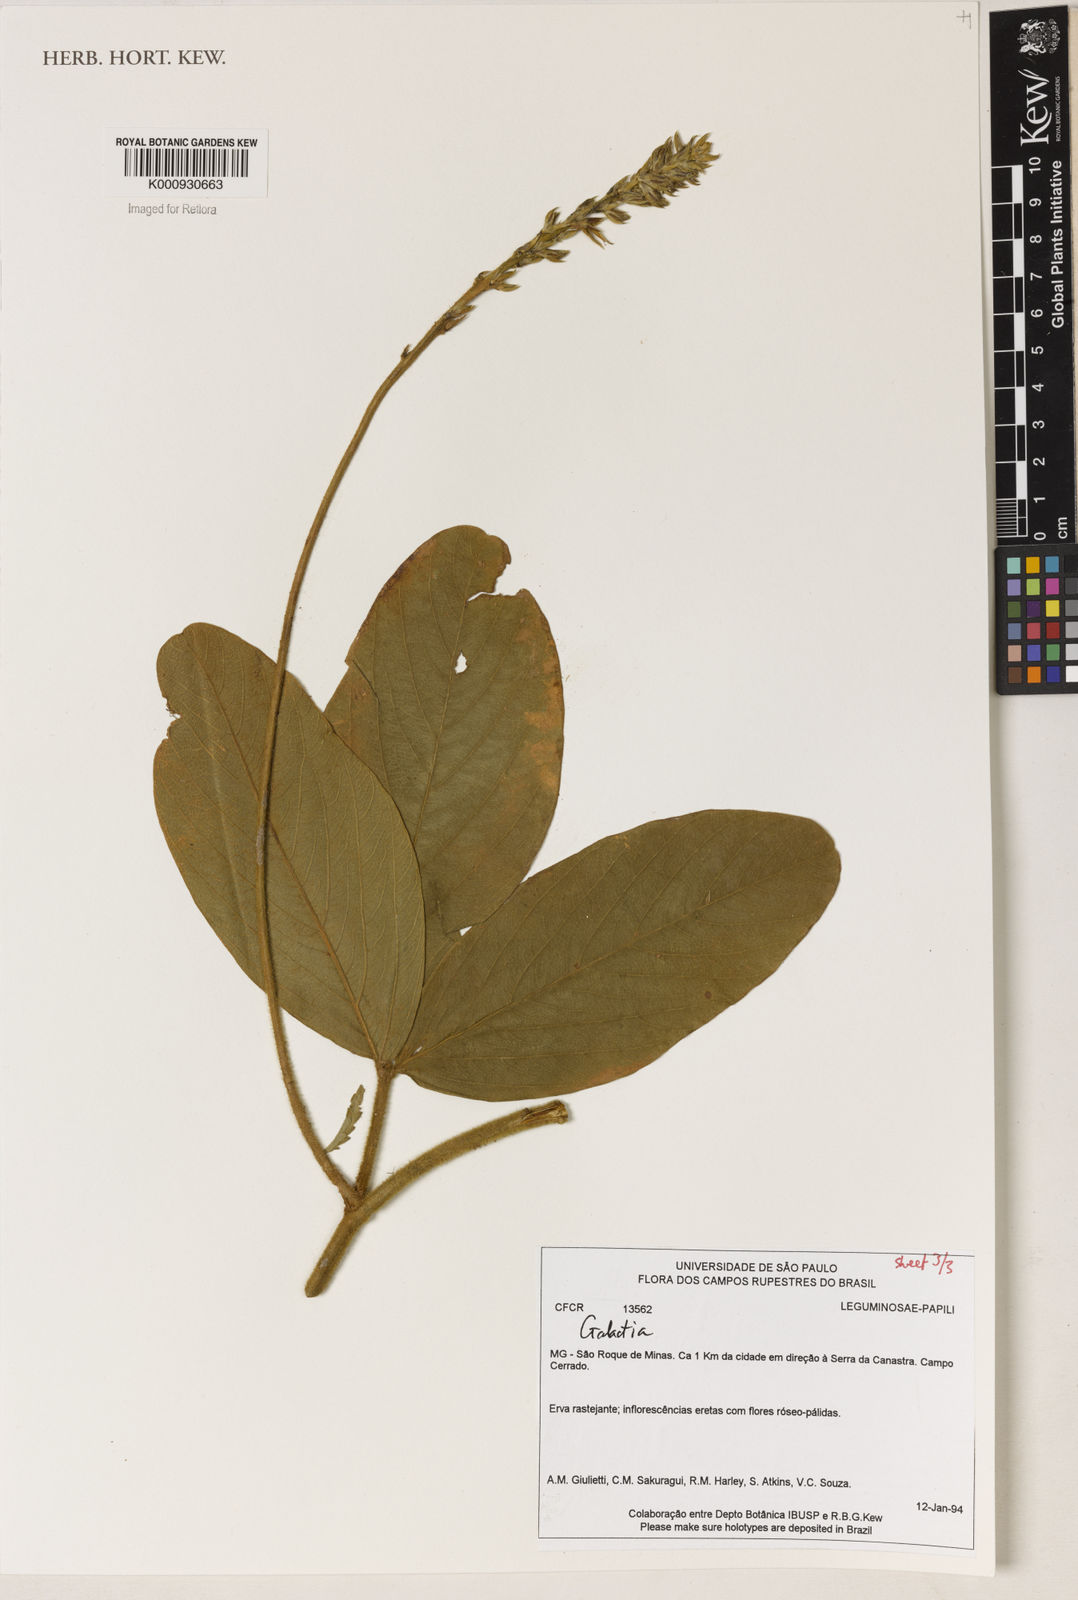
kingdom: Plantae
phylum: Tracheophyta
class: Magnoliopsida
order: Fabales
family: Fabaceae
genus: Galactia
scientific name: Galactia
